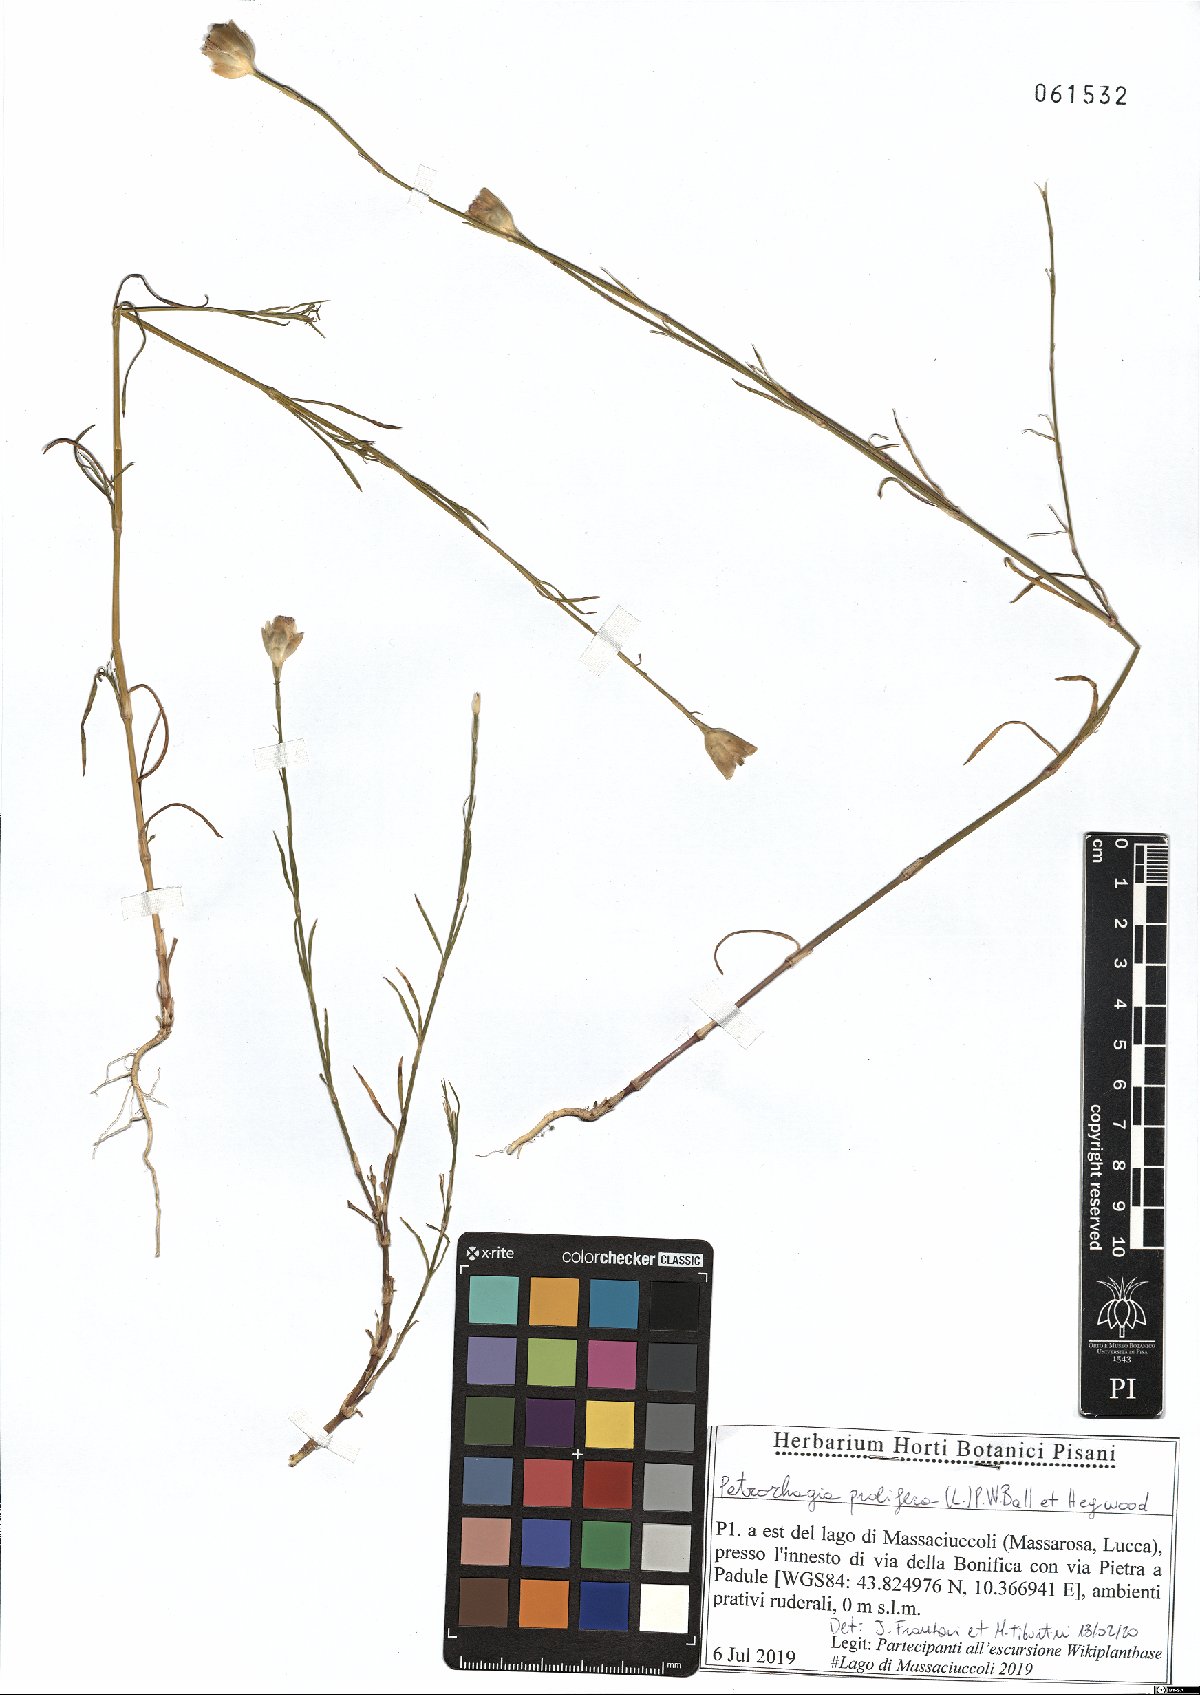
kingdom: Plantae
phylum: Tracheophyta
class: Magnoliopsida
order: Caryophyllales
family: Caryophyllaceae
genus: Petrorhagia
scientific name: Petrorhagia prolifera
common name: Proliferous pink
